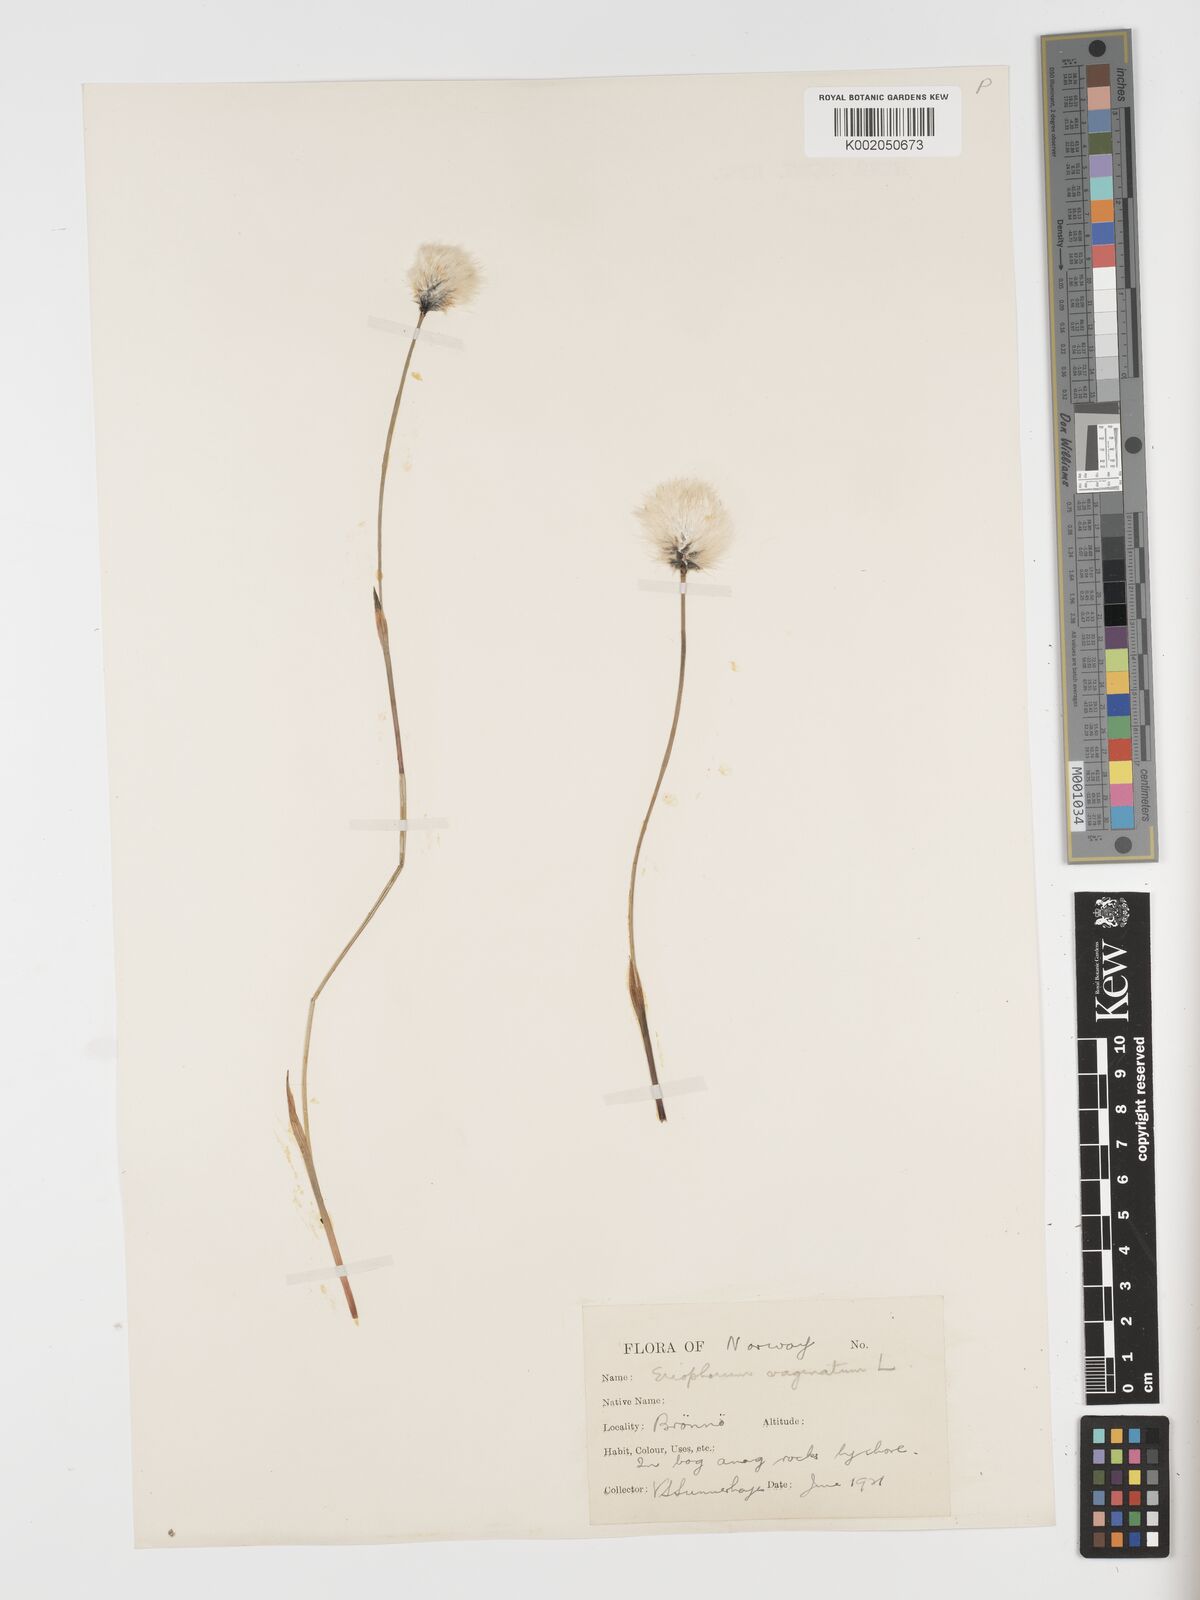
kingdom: Plantae
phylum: Tracheophyta
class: Liliopsida
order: Poales
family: Cyperaceae
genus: Eriophorum
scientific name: Eriophorum vaginatum
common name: Hare's-tail cottongrass
